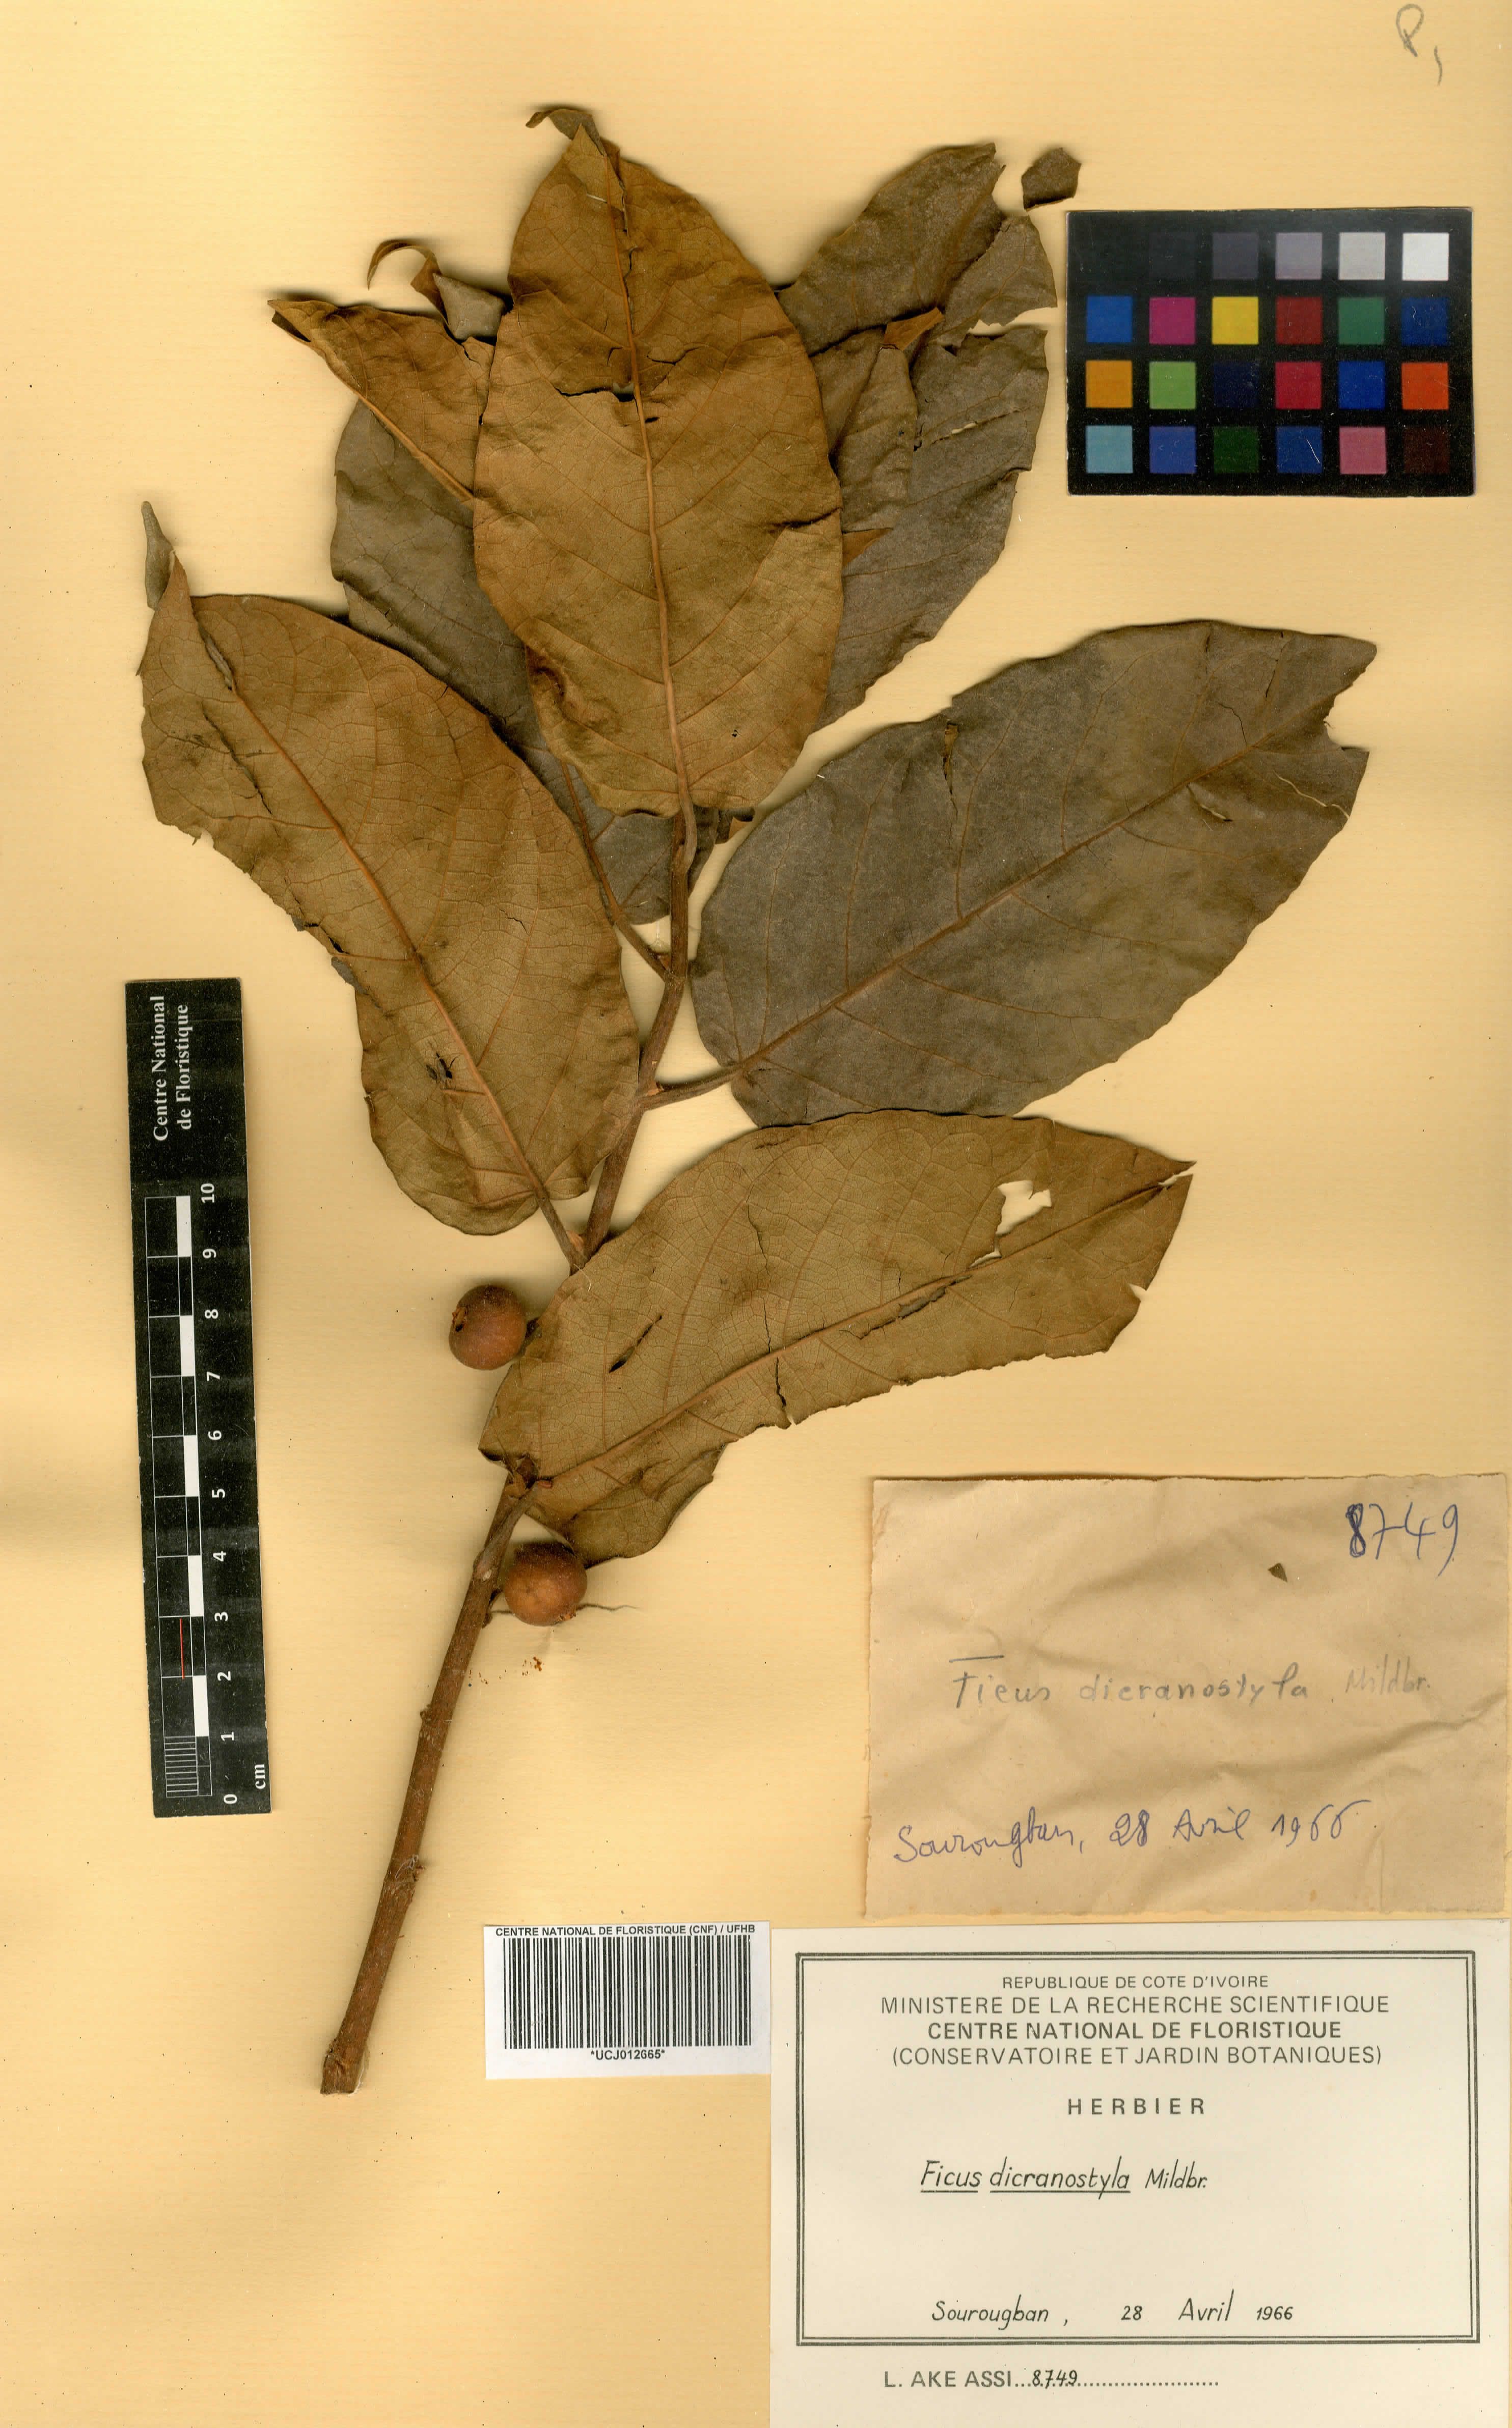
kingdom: Plantae
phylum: Tracheophyta
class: Magnoliopsida
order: Rosales
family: Moraceae
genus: Ficus
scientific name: Ficus dicranostyla
